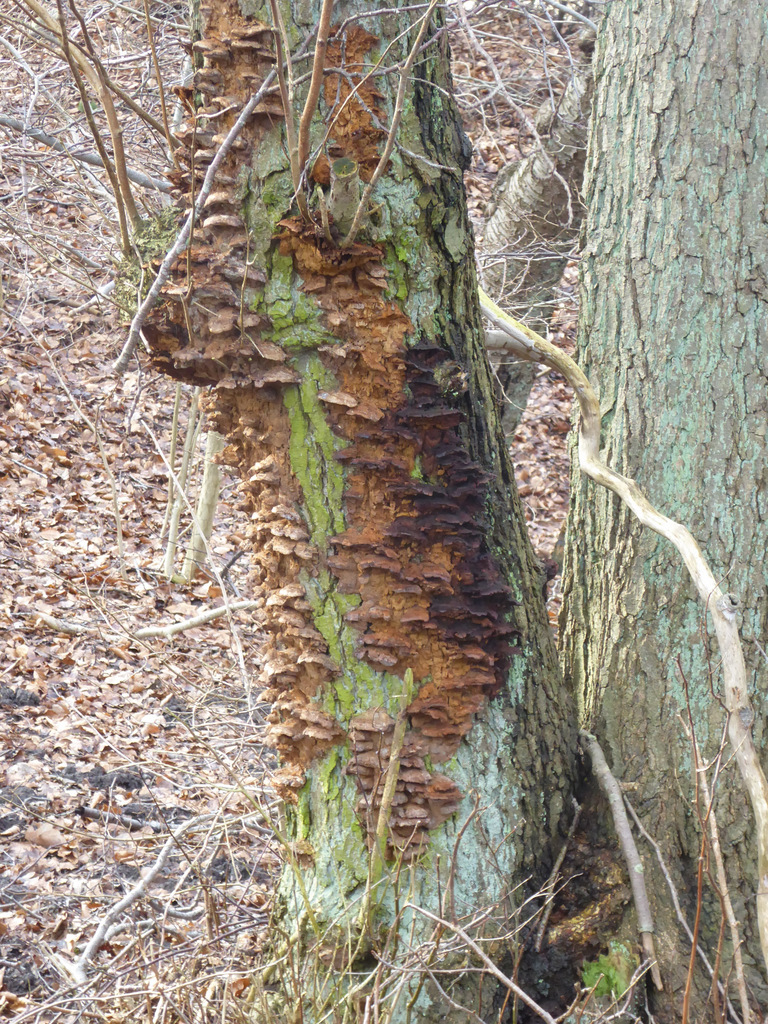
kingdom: Fungi
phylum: Basidiomycota
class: Agaricomycetes
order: Hymenochaetales
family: Hymenochaetaceae
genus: Xanthoporia
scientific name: Xanthoporia radiata
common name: elle-spejlporesvamp
